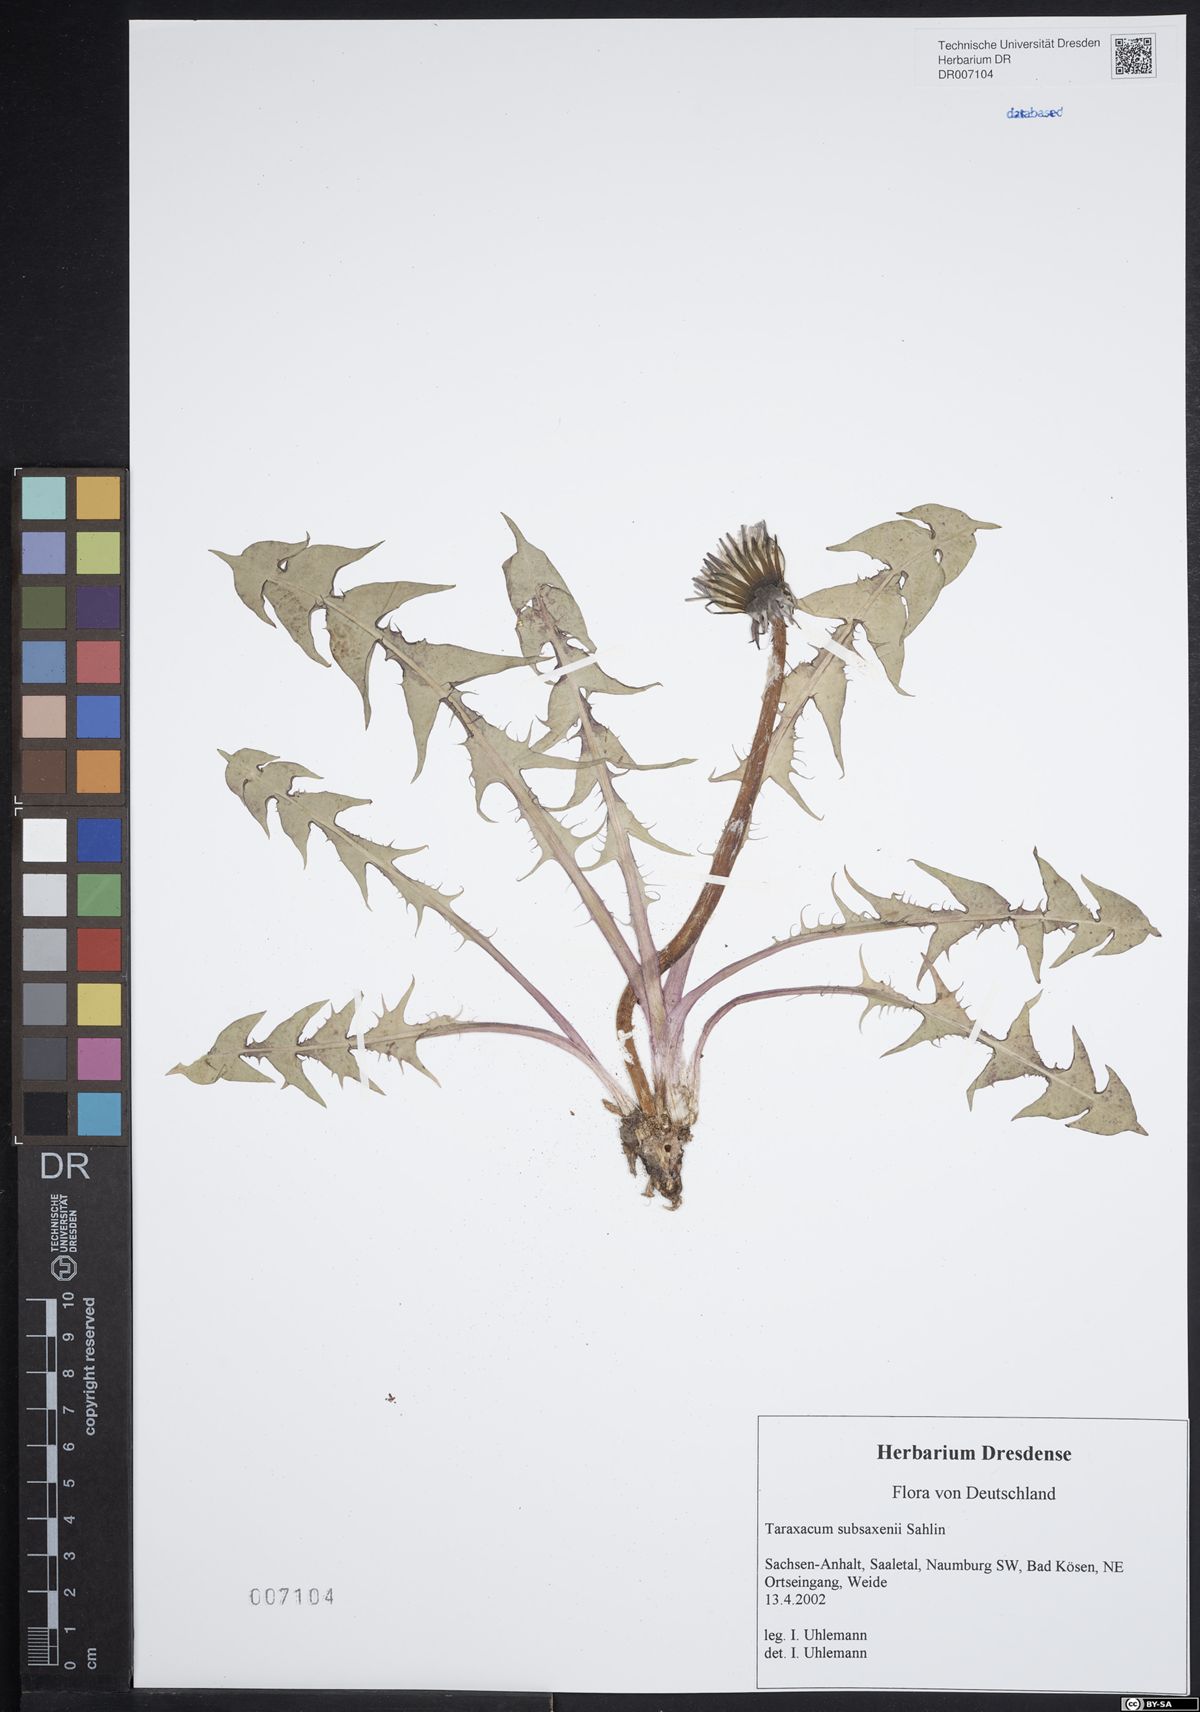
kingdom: Plantae
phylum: Tracheophyta
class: Magnoliopsida
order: Asterales
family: Asteraceae
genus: Taraxacum
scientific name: Taraxacum subsaxenii
